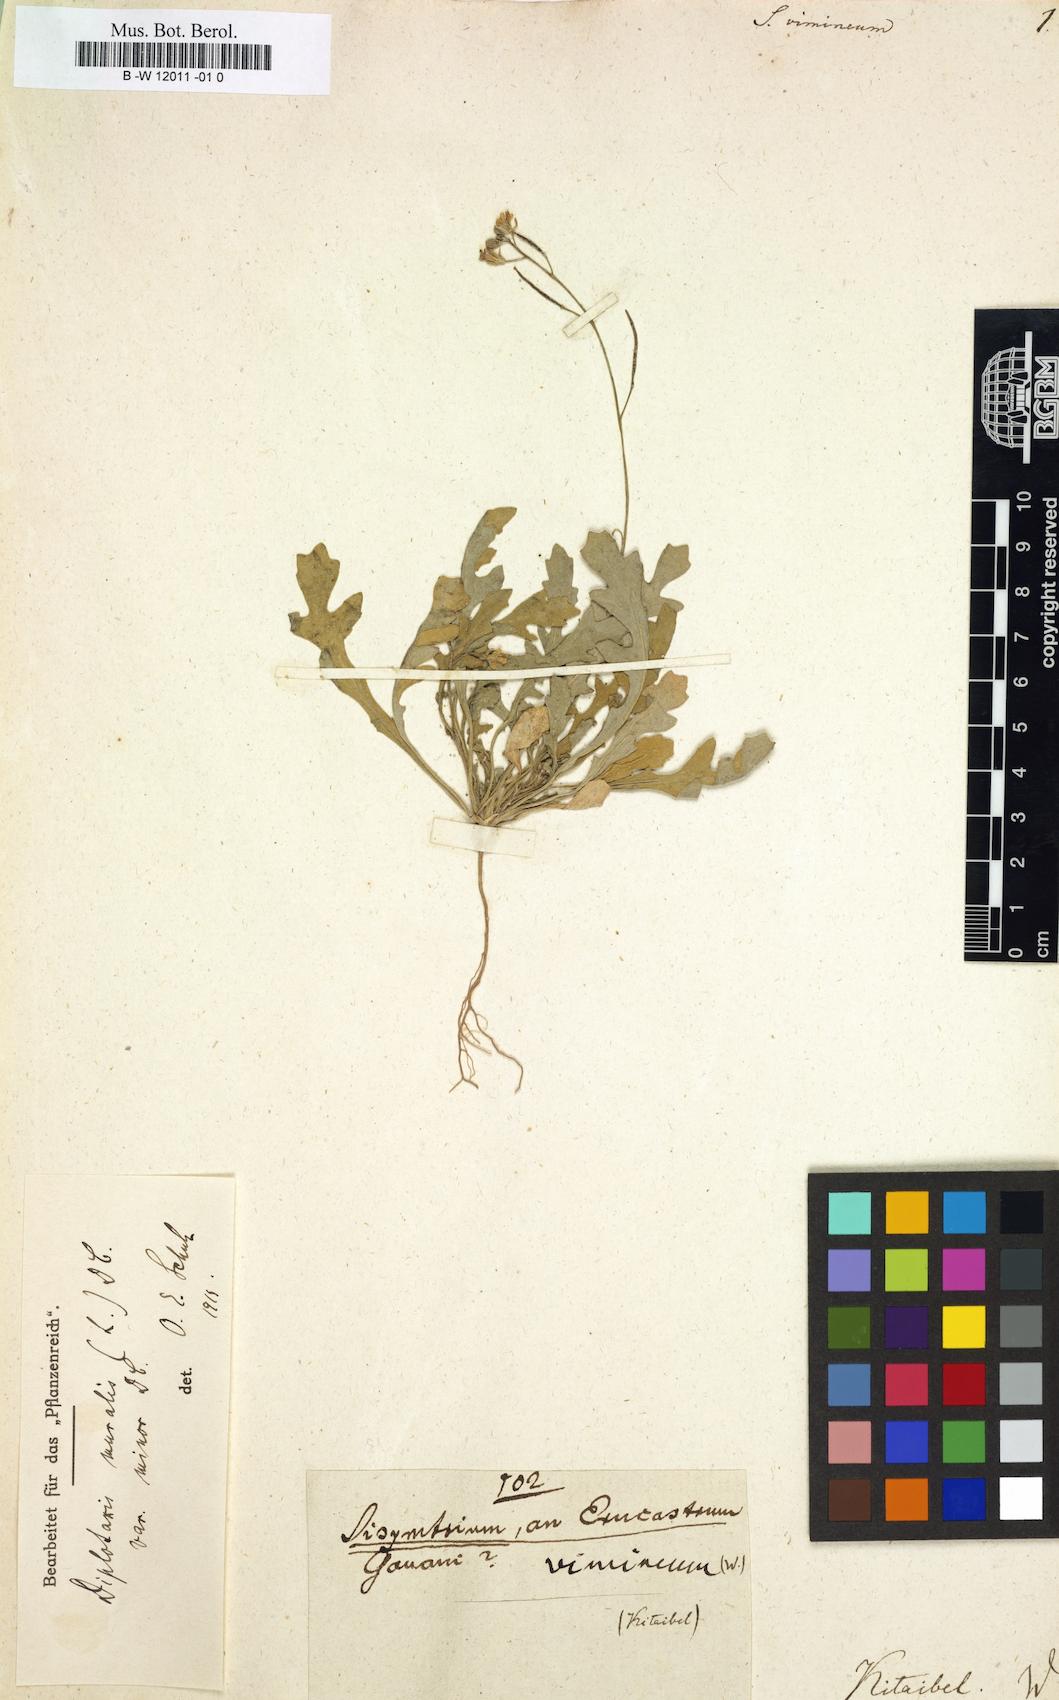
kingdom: Plantae
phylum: Tracheophyta
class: Magnoliopsida
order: Brassicales
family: Brassicaceae
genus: Sisymbrium
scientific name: Sisymbrium vimineum
